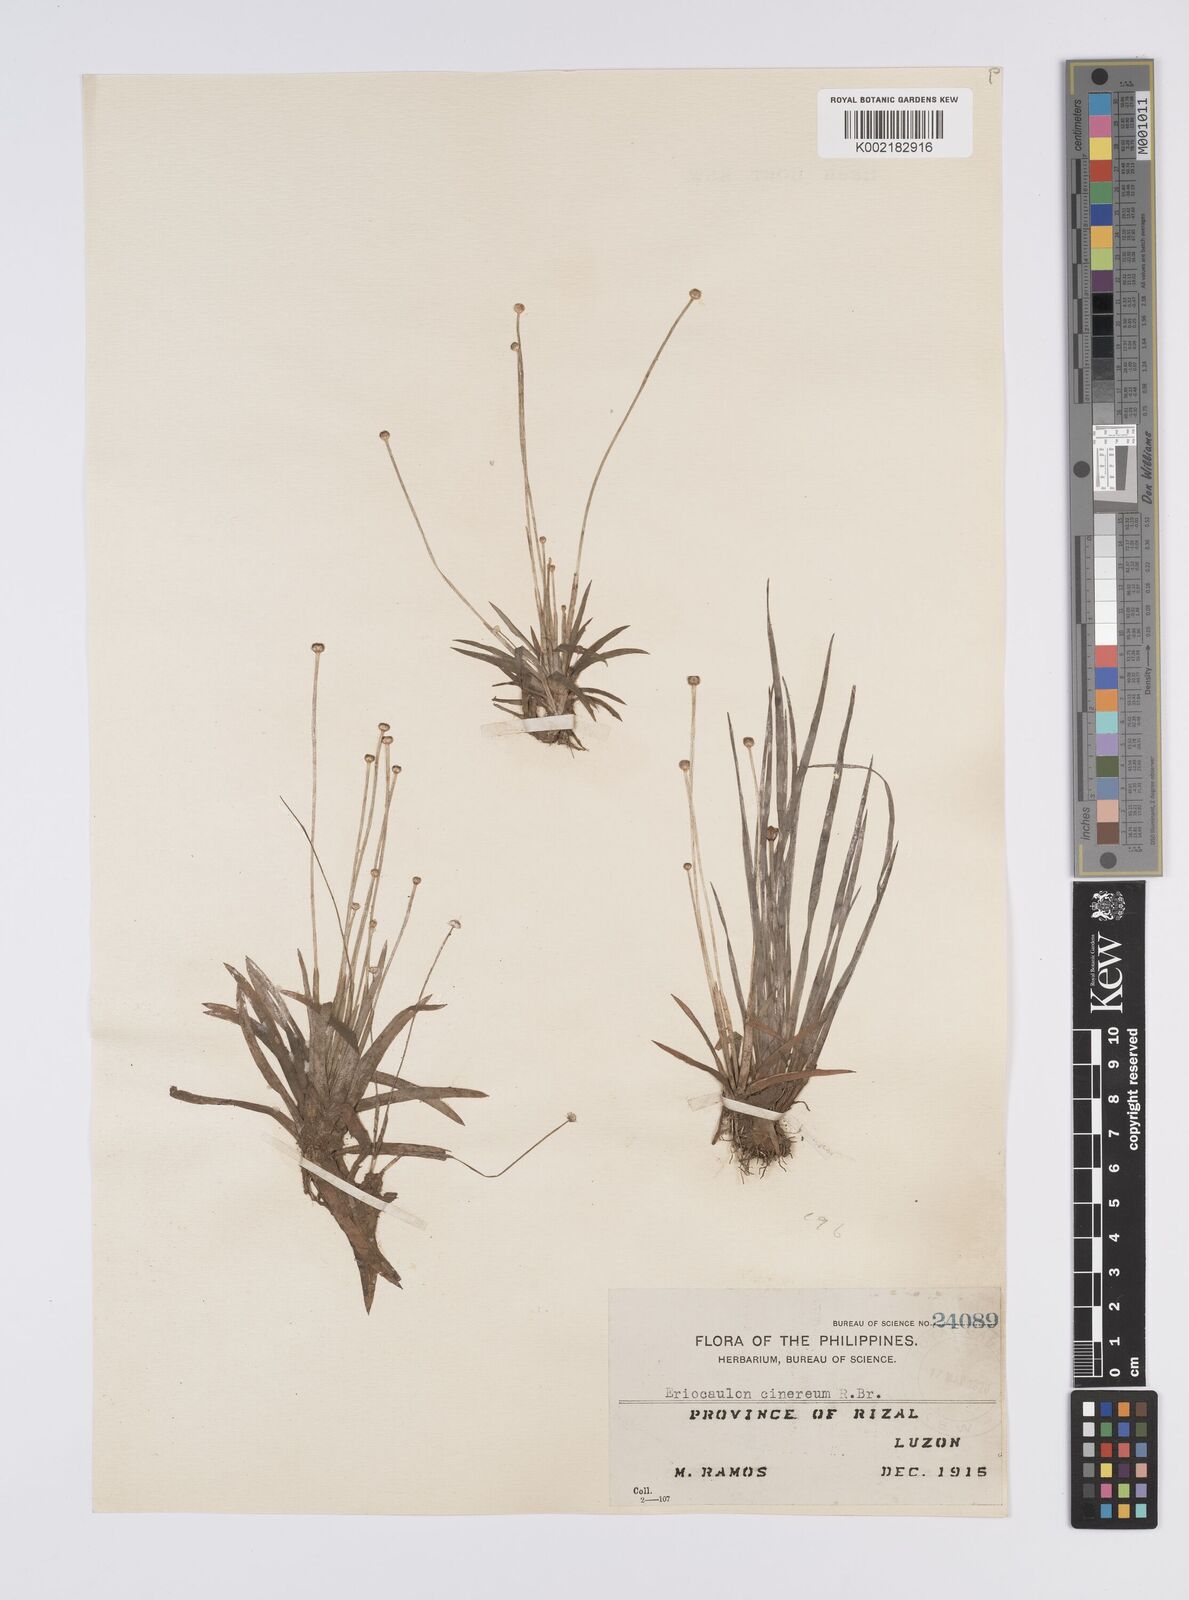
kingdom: Plantae
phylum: Tracheophyta
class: Liliopsida
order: Poales
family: Eriocaulaceae
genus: Eriocaulon
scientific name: Eriocaulon cinereum
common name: Ashy pipewort
